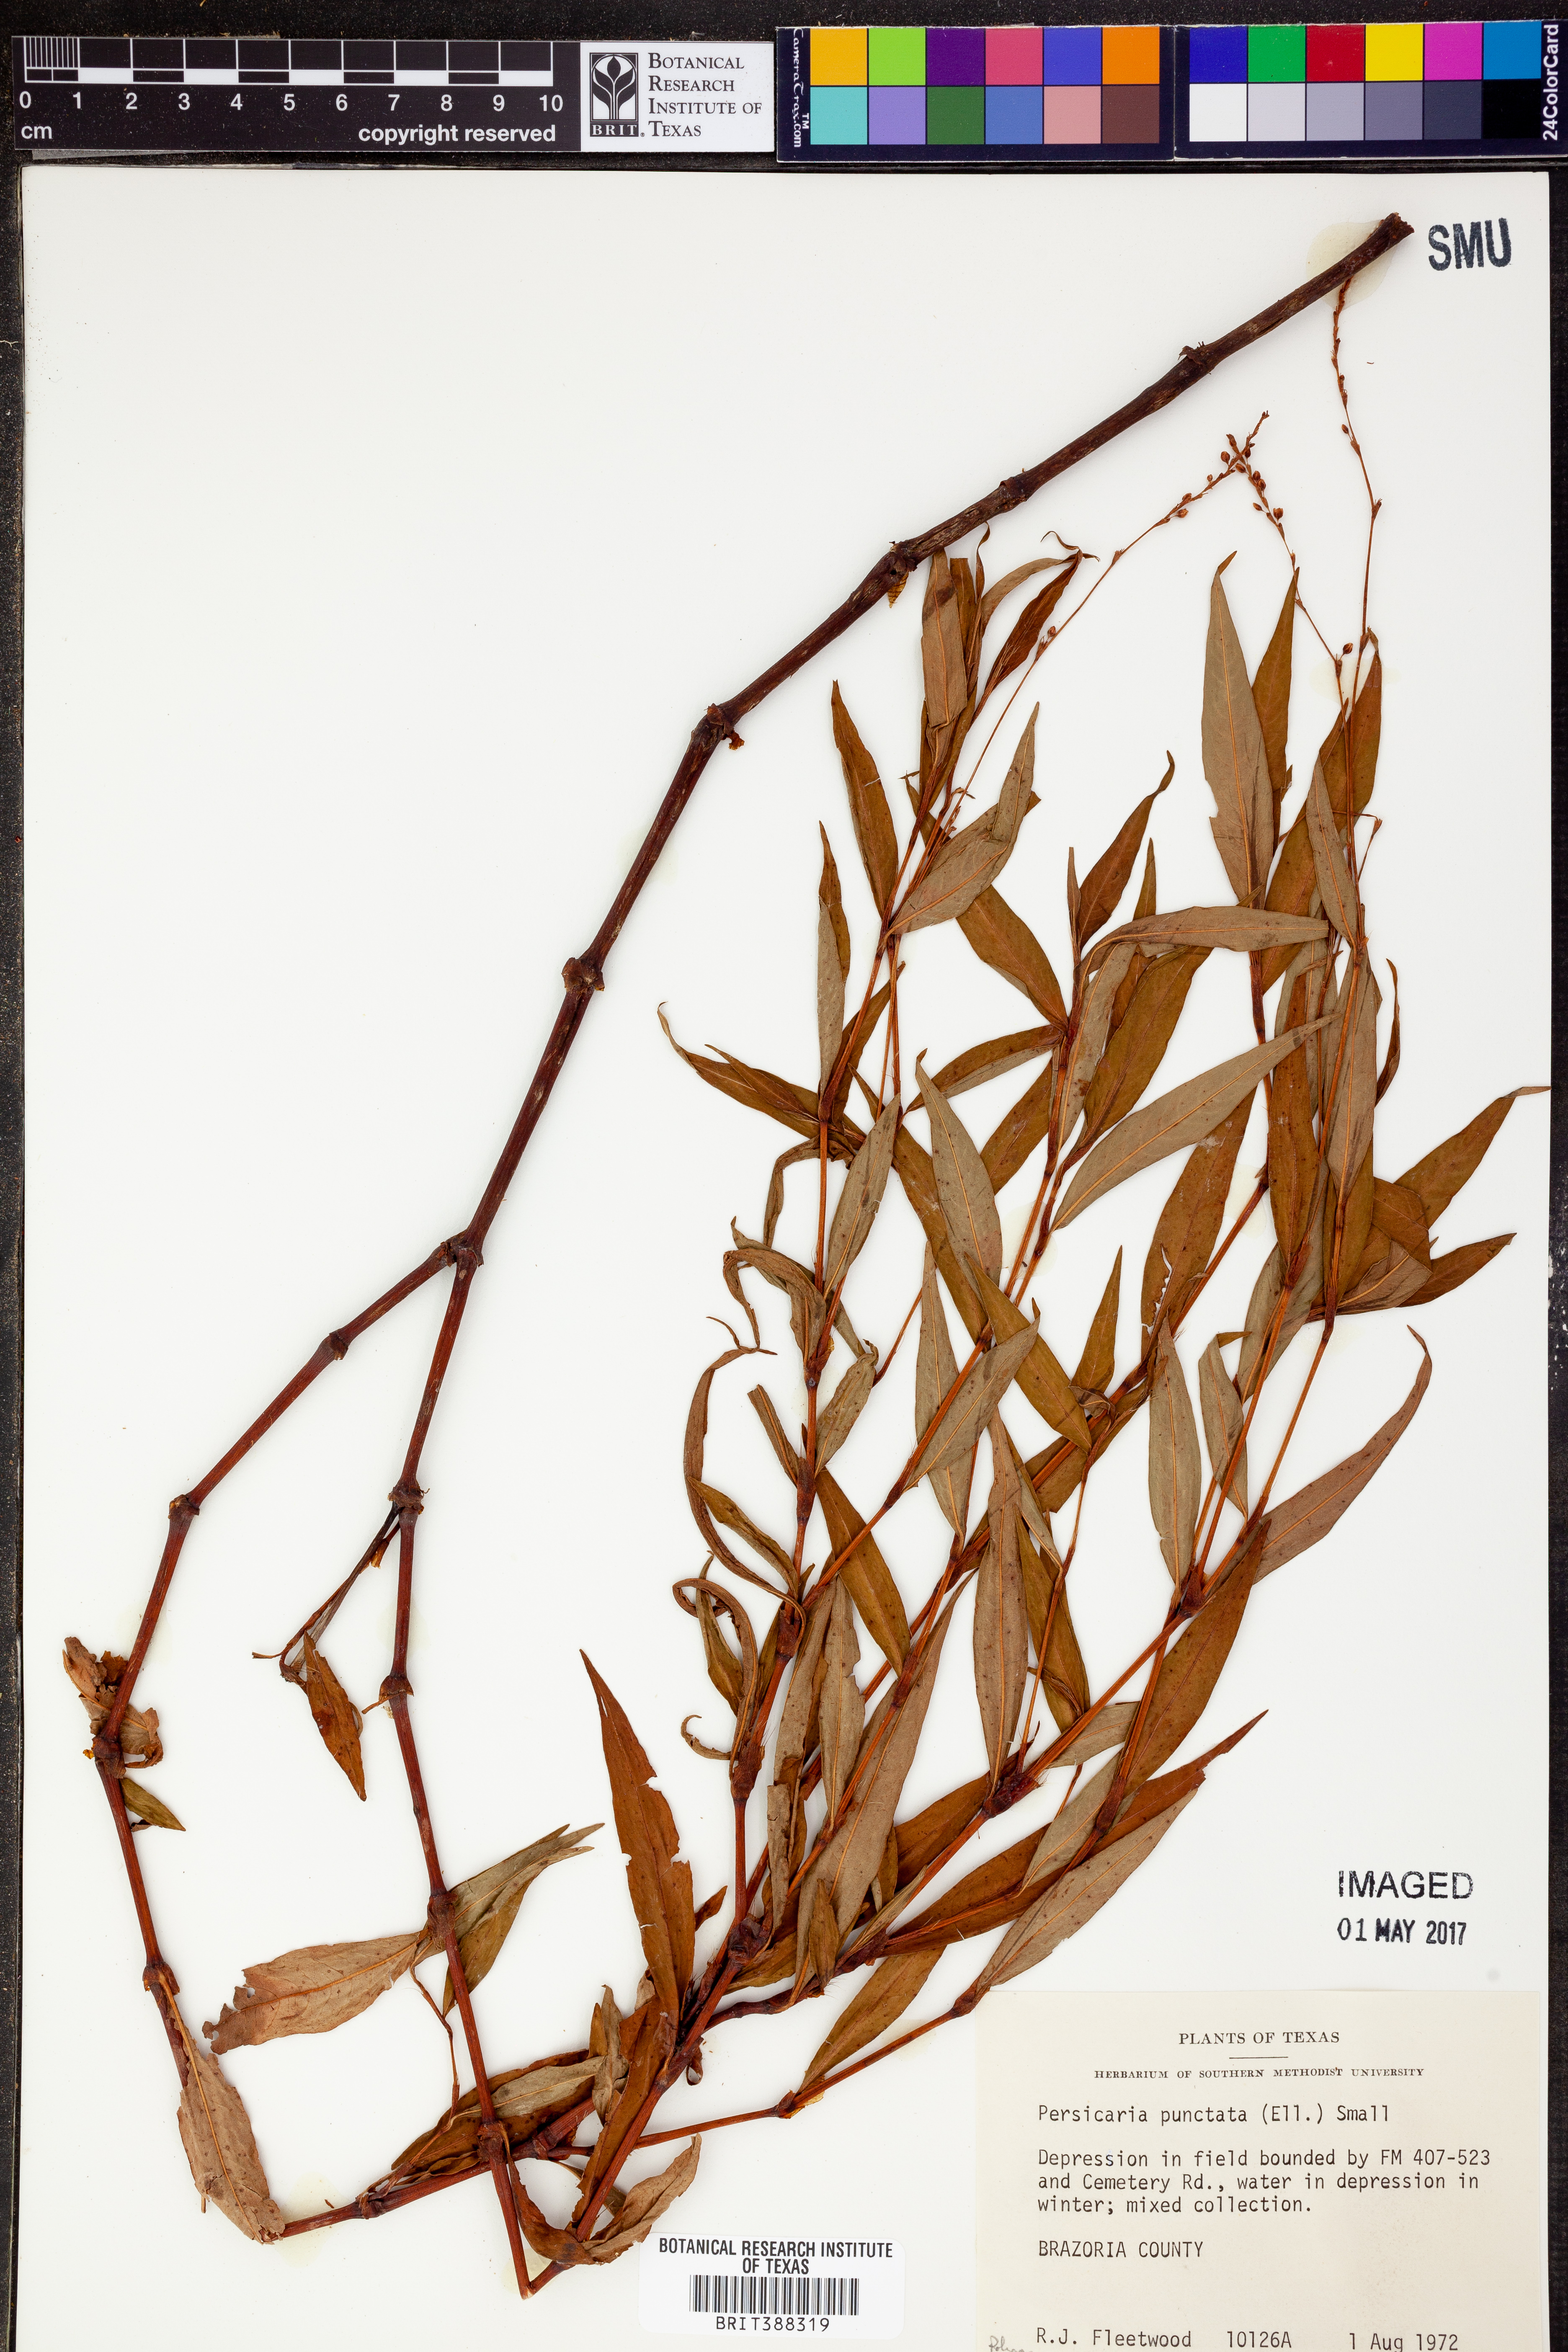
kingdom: Plantae
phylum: Tracheophyta
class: Magnoliopsida
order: Caryophyllales
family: Polygonaceae
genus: Persicaria
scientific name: Persicaria punctata
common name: Dotted smartweed
